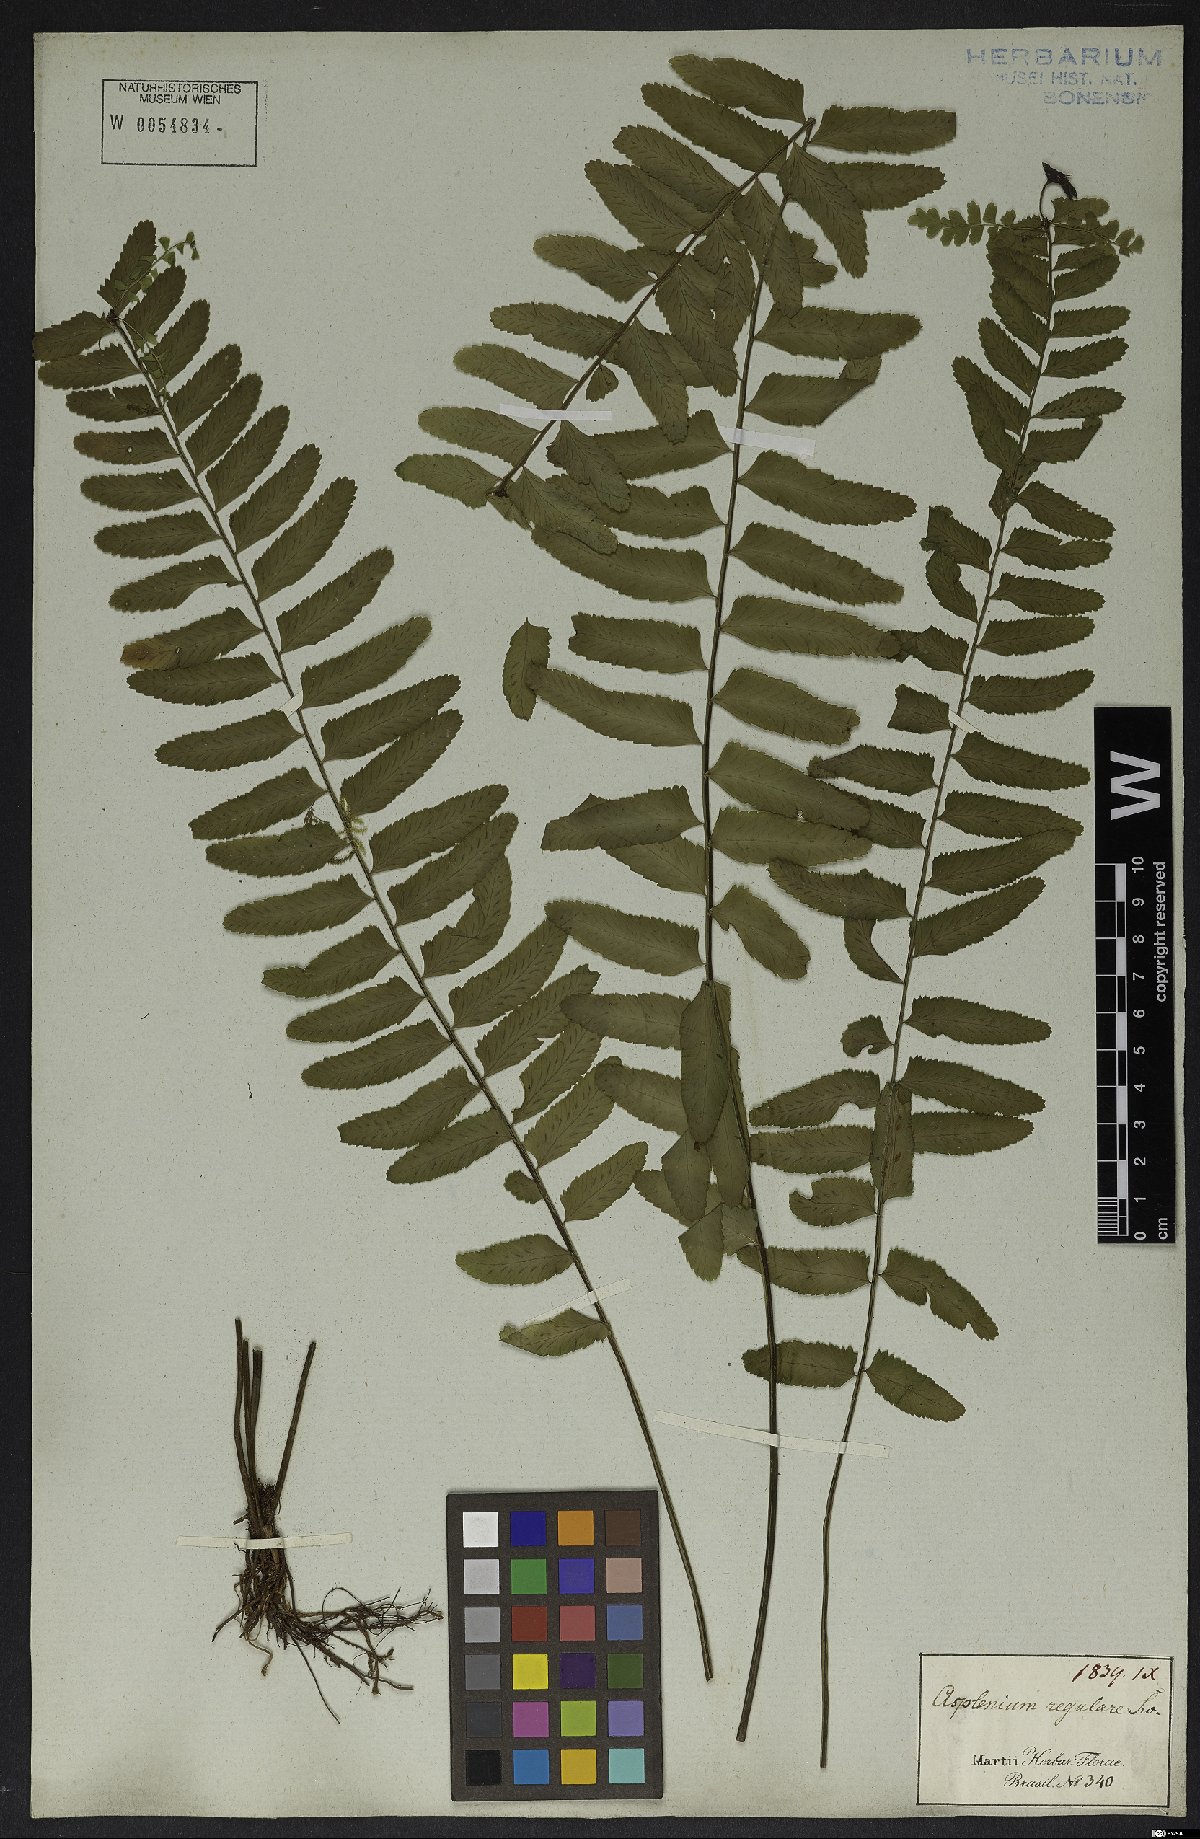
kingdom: Plantae
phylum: Tracheophyta
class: Polypodiopsida
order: Polypodiales
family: Aspleniaceae
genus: Asplenium
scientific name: Asplenium regulare
